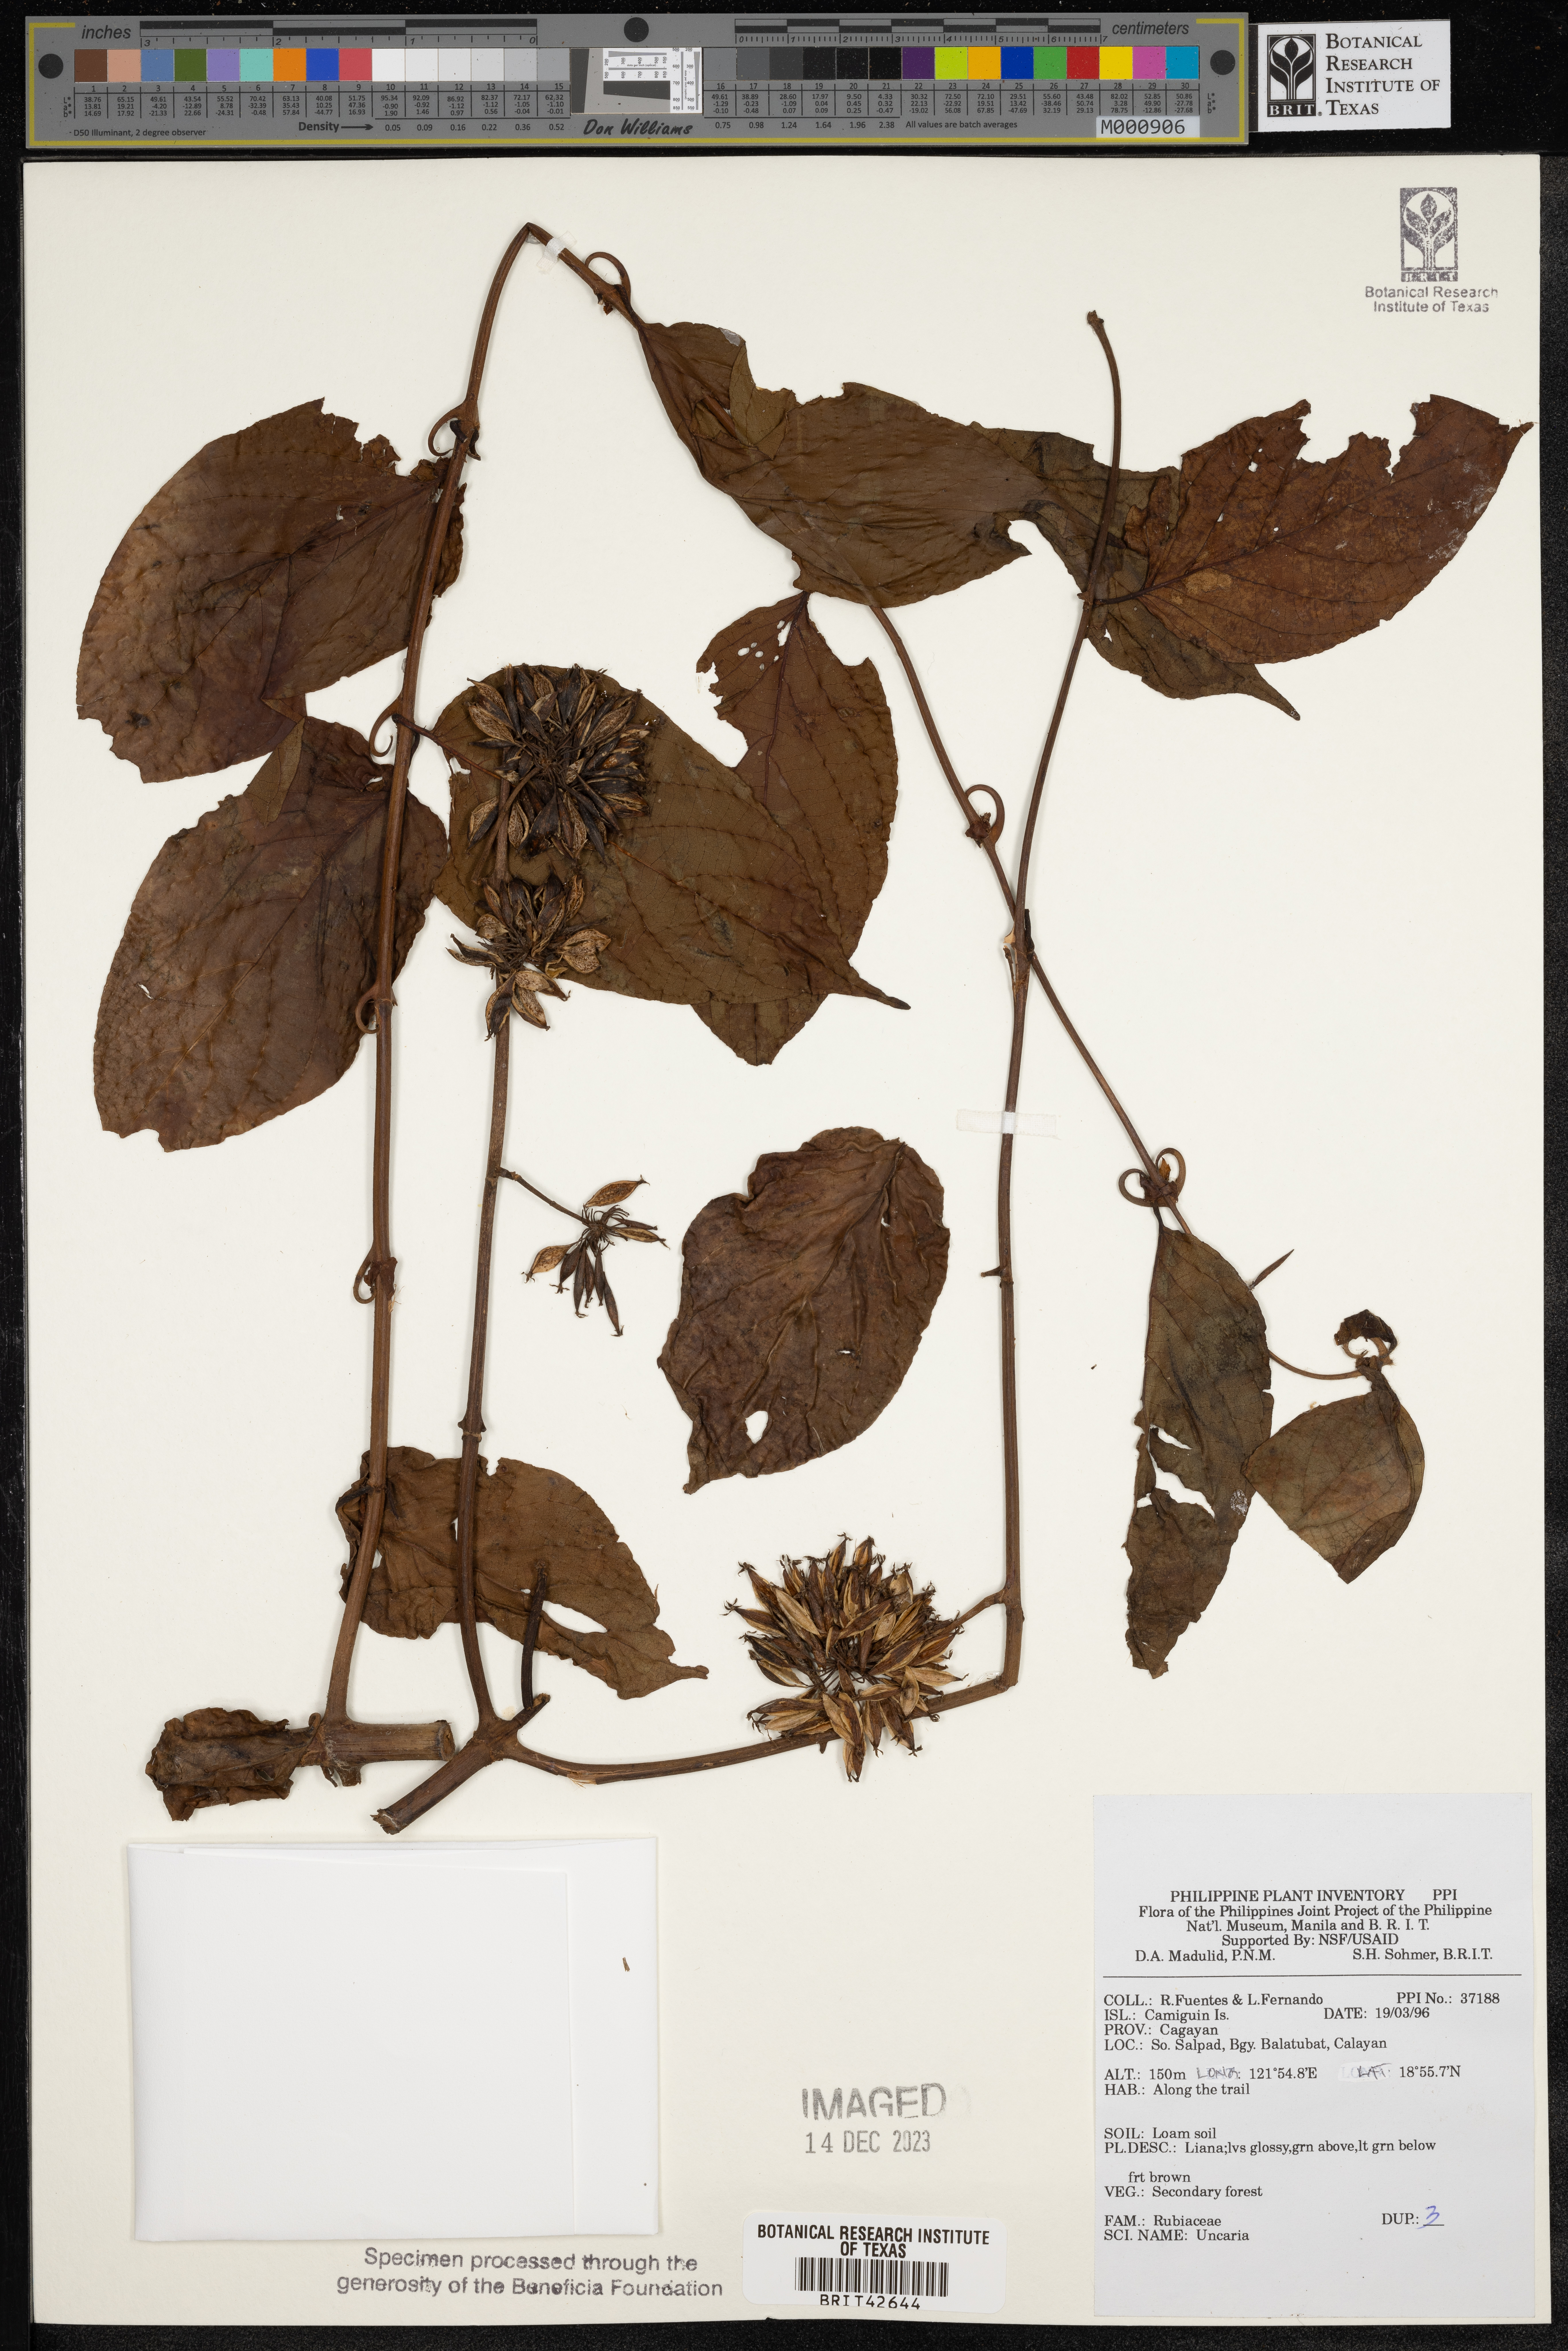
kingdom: Plantae
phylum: Tracheophyta
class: Magnoliopsida
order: Gentianales
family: Rubiaceae
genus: Uncaria
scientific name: Uncaria
